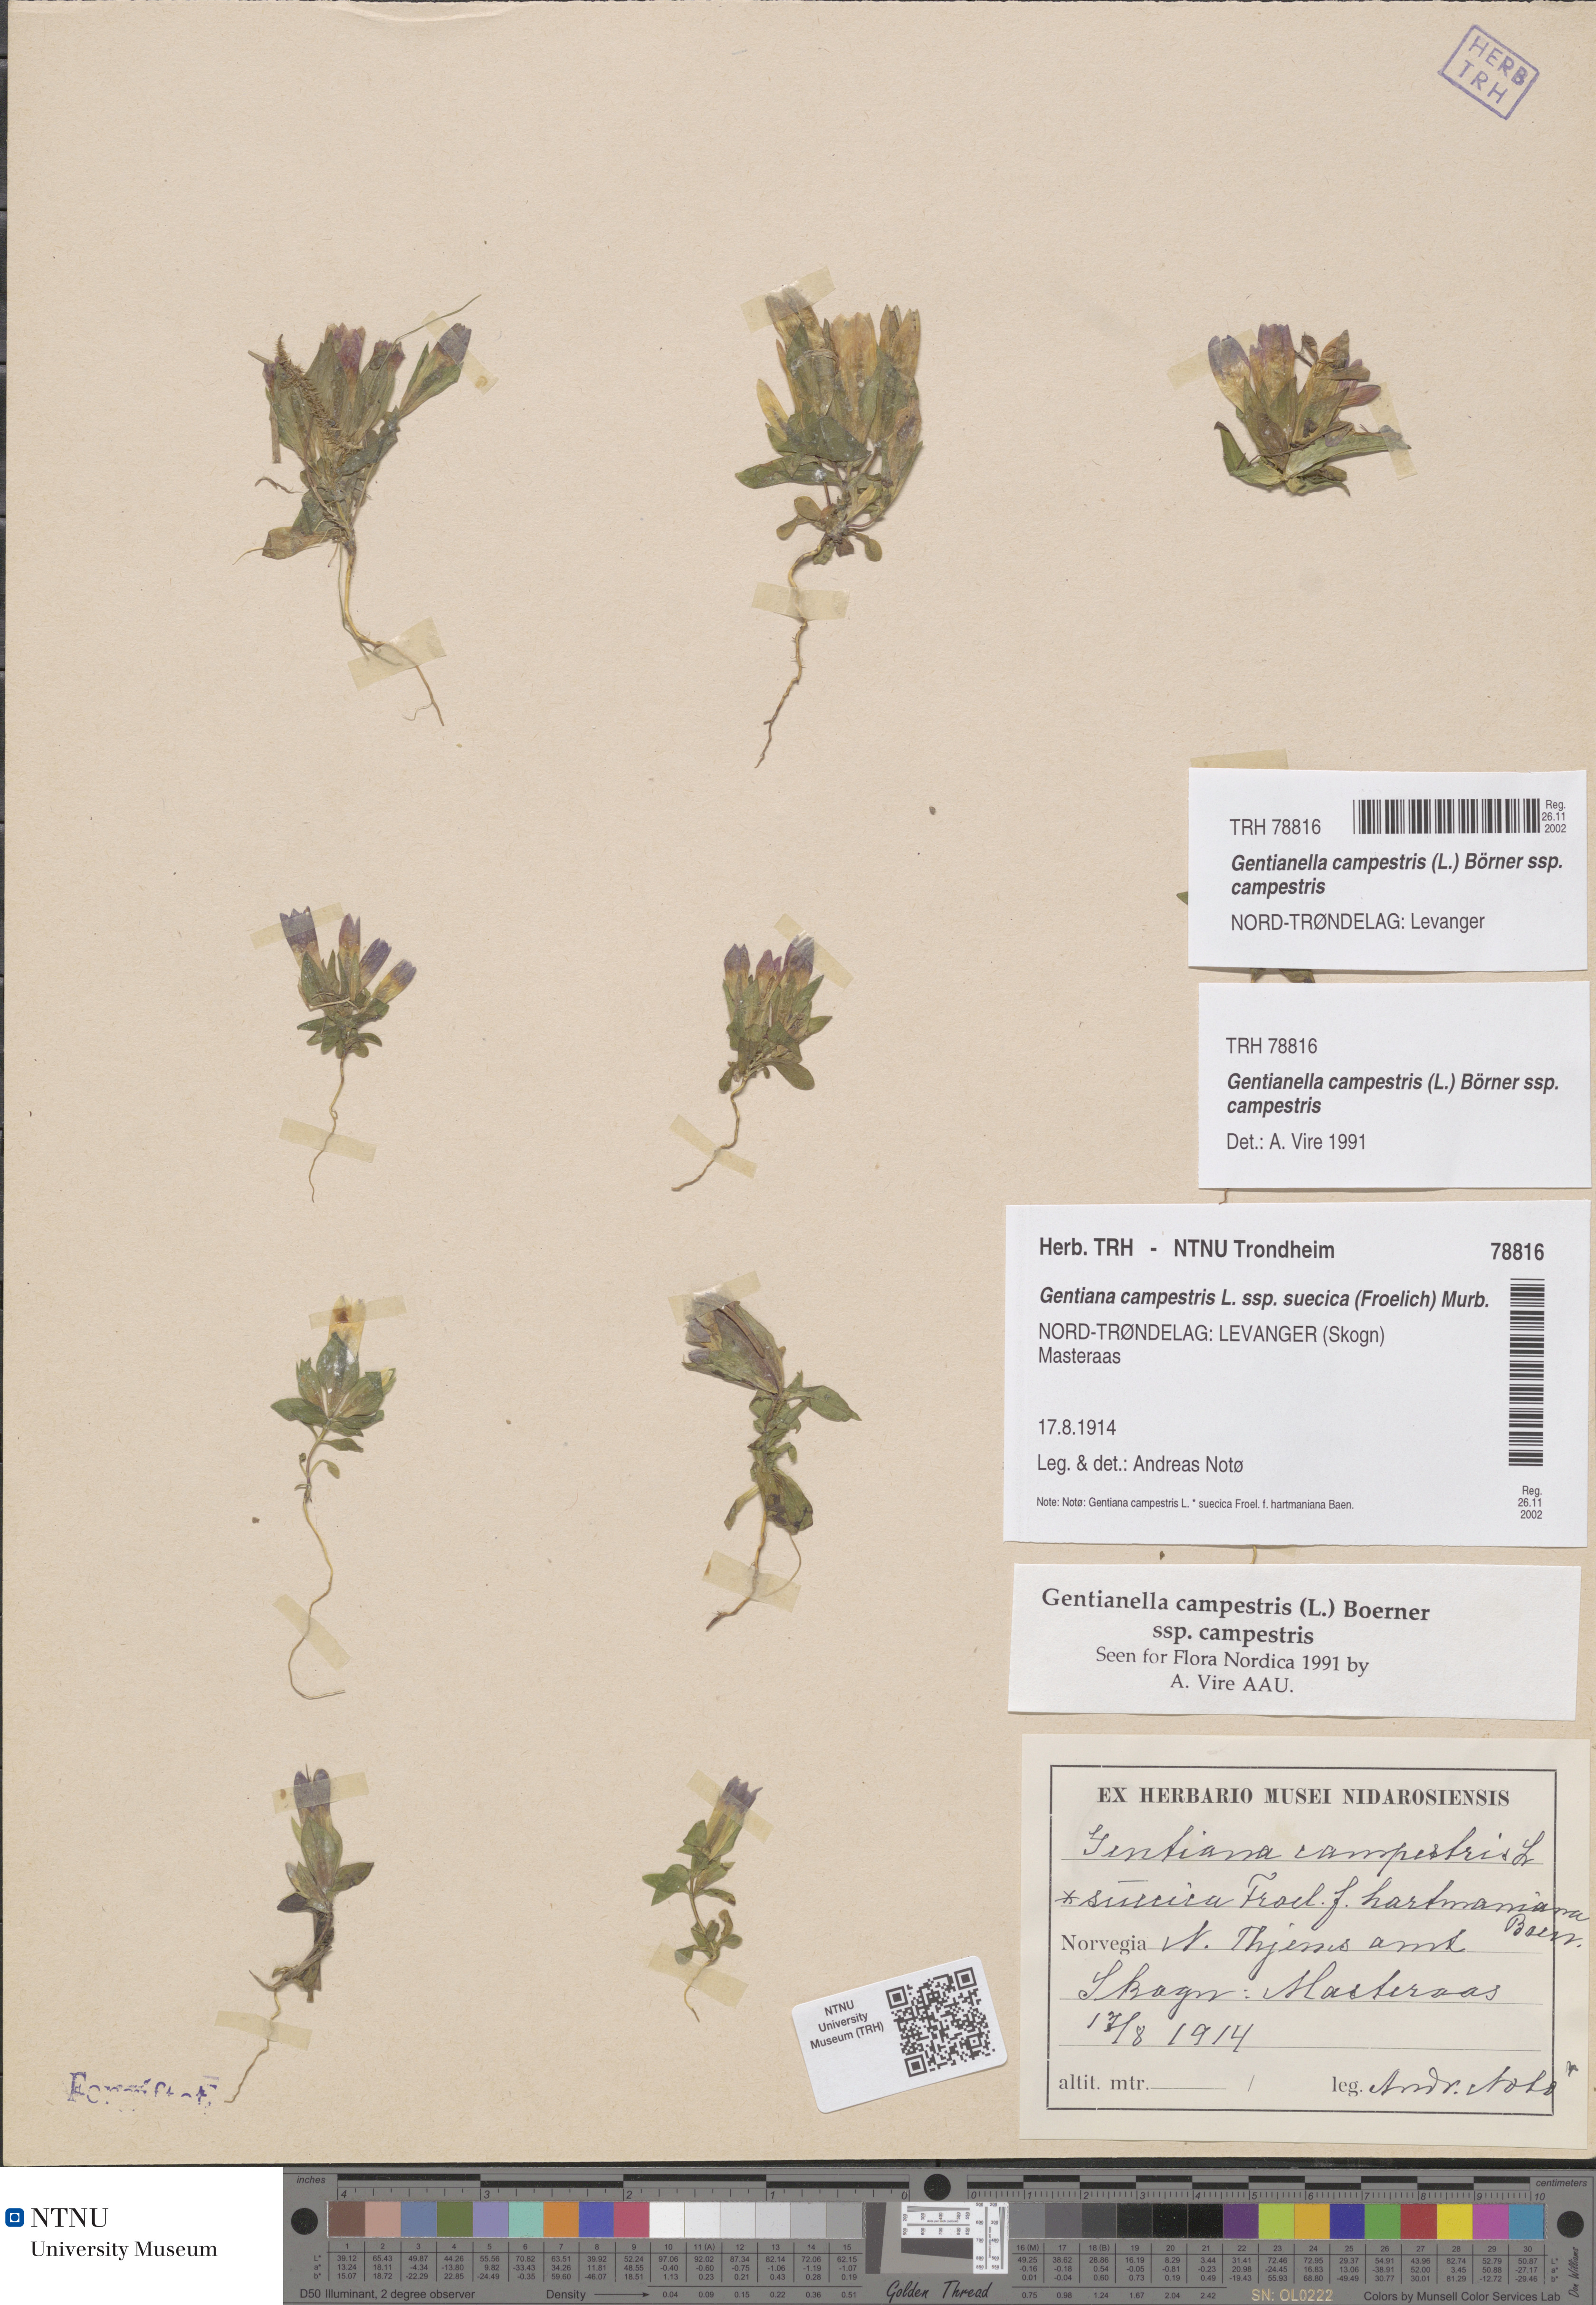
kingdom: Plantae
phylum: Tracheophyta
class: Magnoliopsida
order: Gentianales
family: Gentianaceae
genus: Gentianella
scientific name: Gentianella campestris
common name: Field gentian
